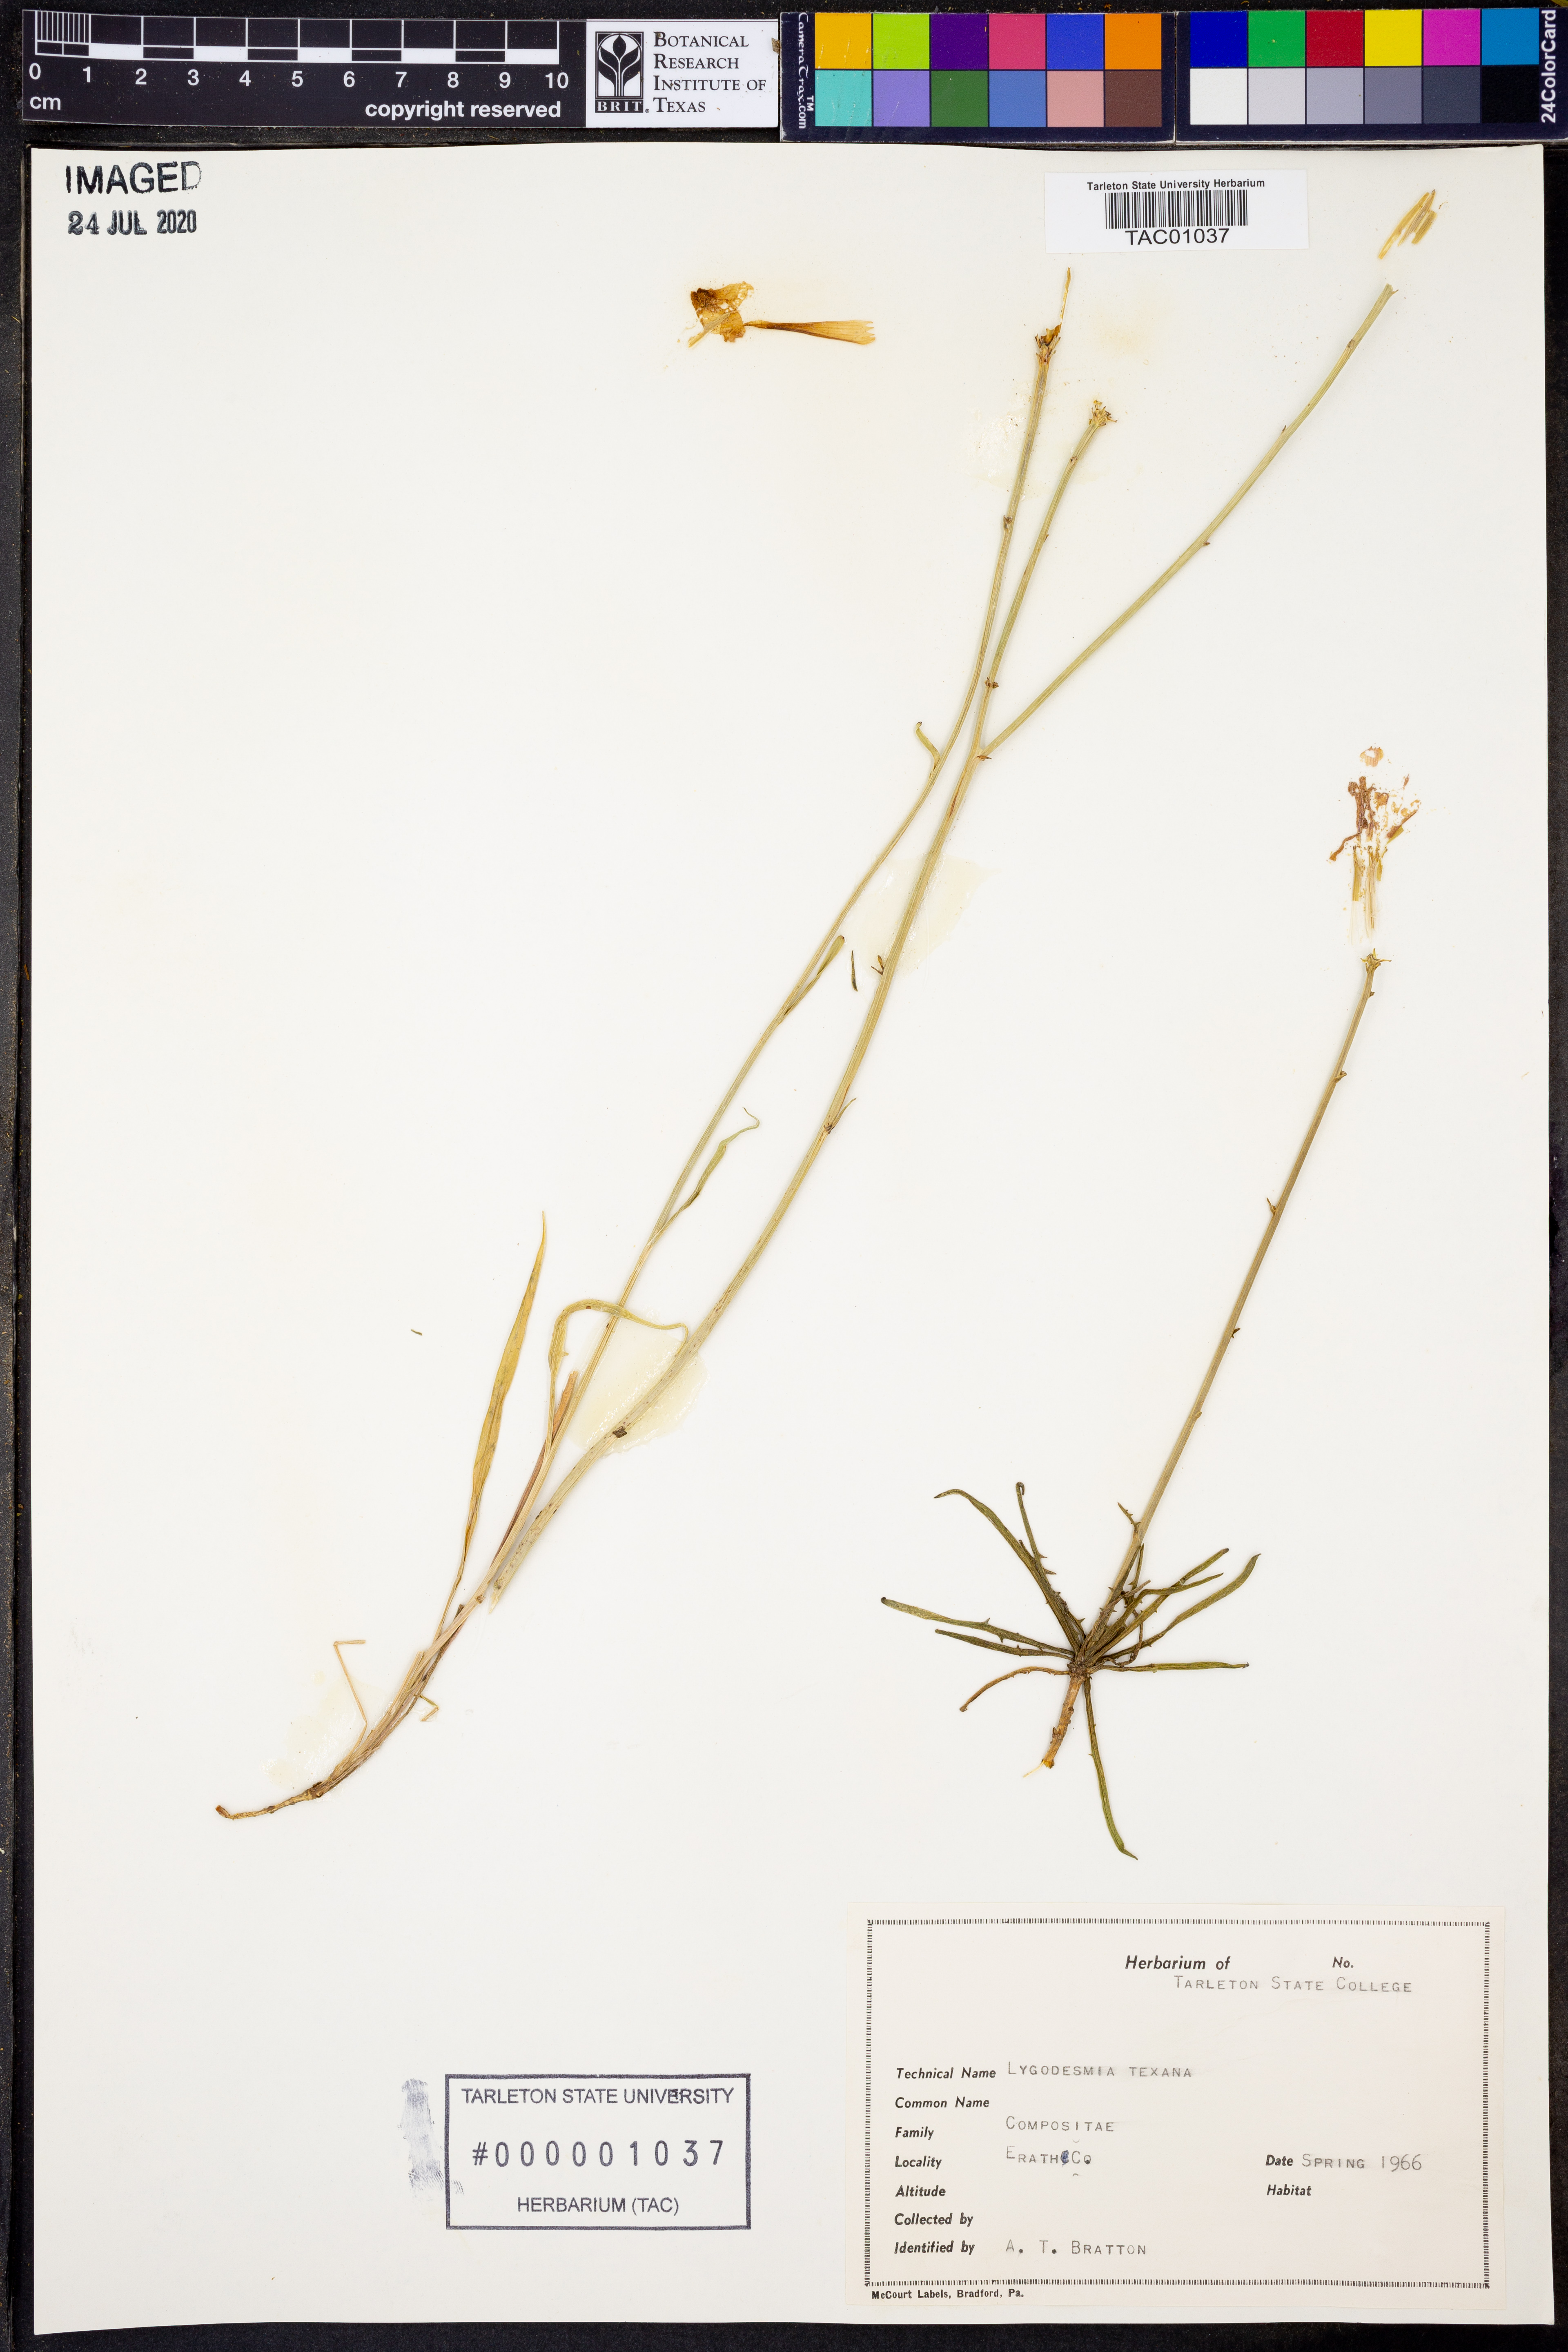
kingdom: Plantae
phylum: Tracheophyta
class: Magnoliopsida
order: Asterales
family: Asteraceae
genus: Lygodesmia
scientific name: Lygodesmia texana
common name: Texas skeleton-plant
